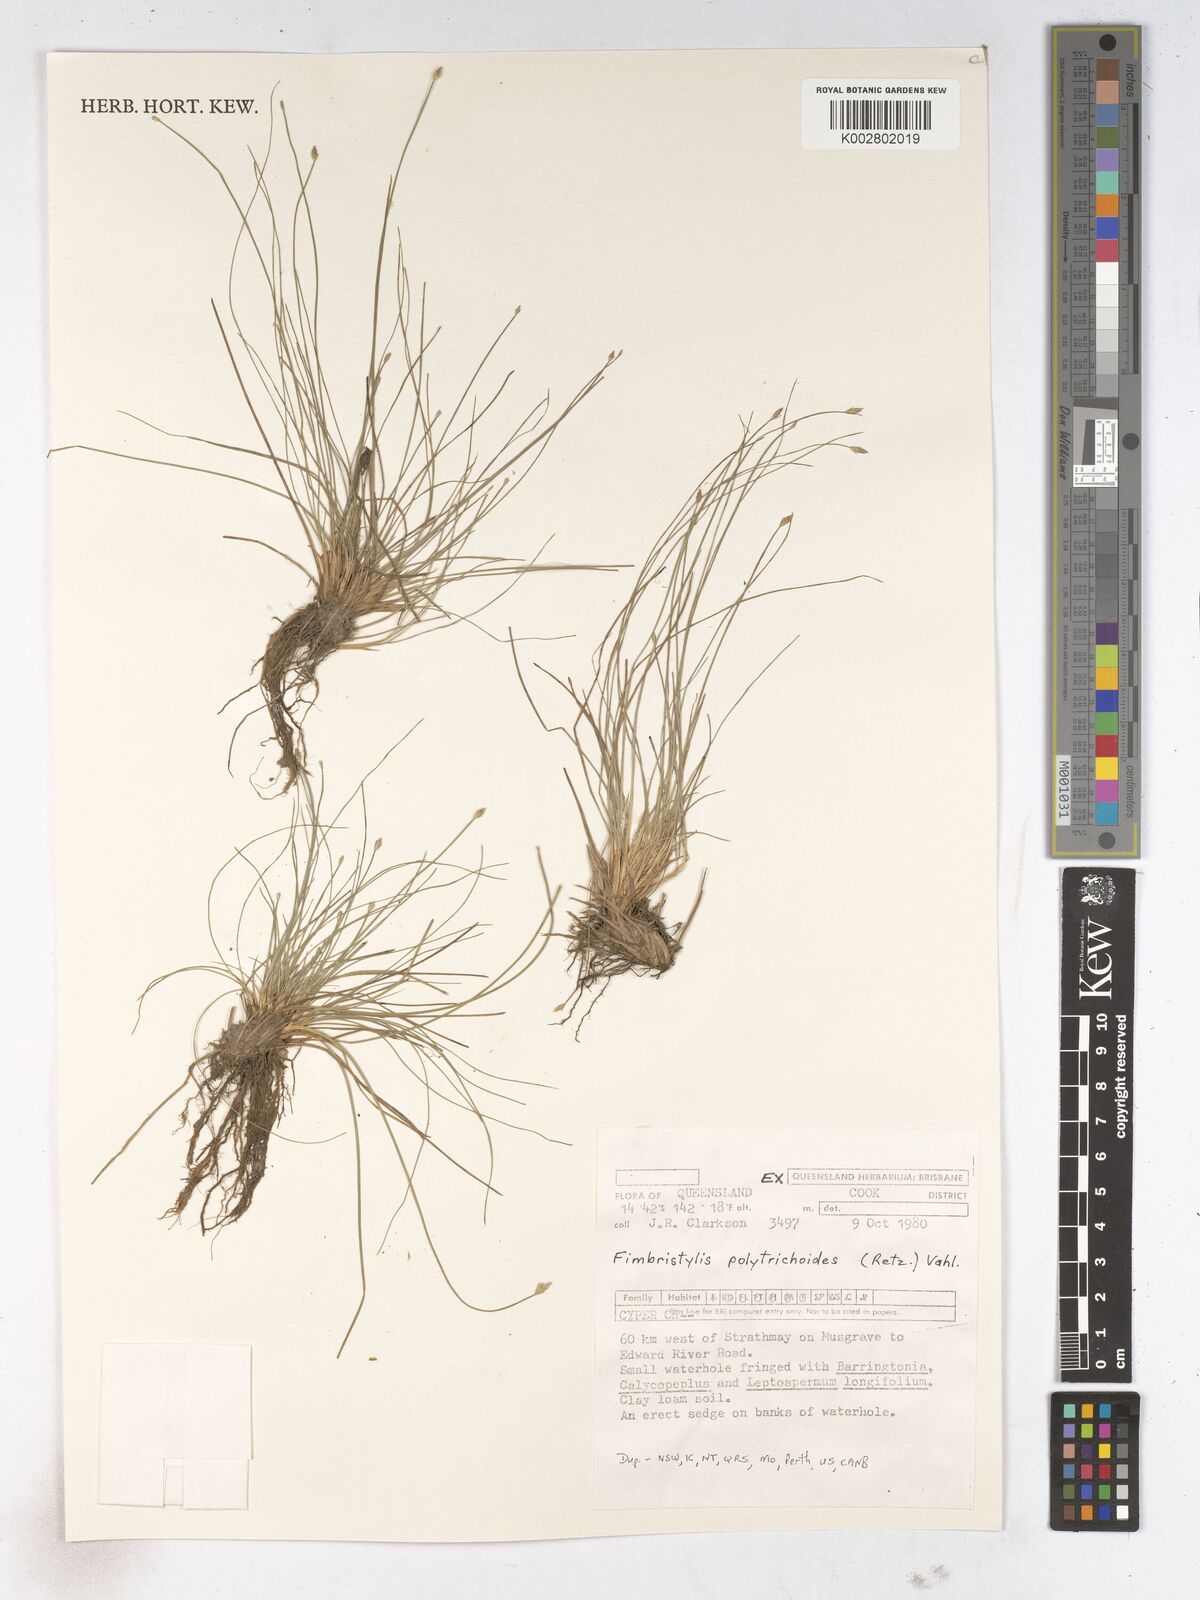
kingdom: Plantae
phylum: Tracheophyta
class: Liliopsida
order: Poales
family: Cyperaceae
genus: Fimbristylis
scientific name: Fimbristylis polytrichoides
